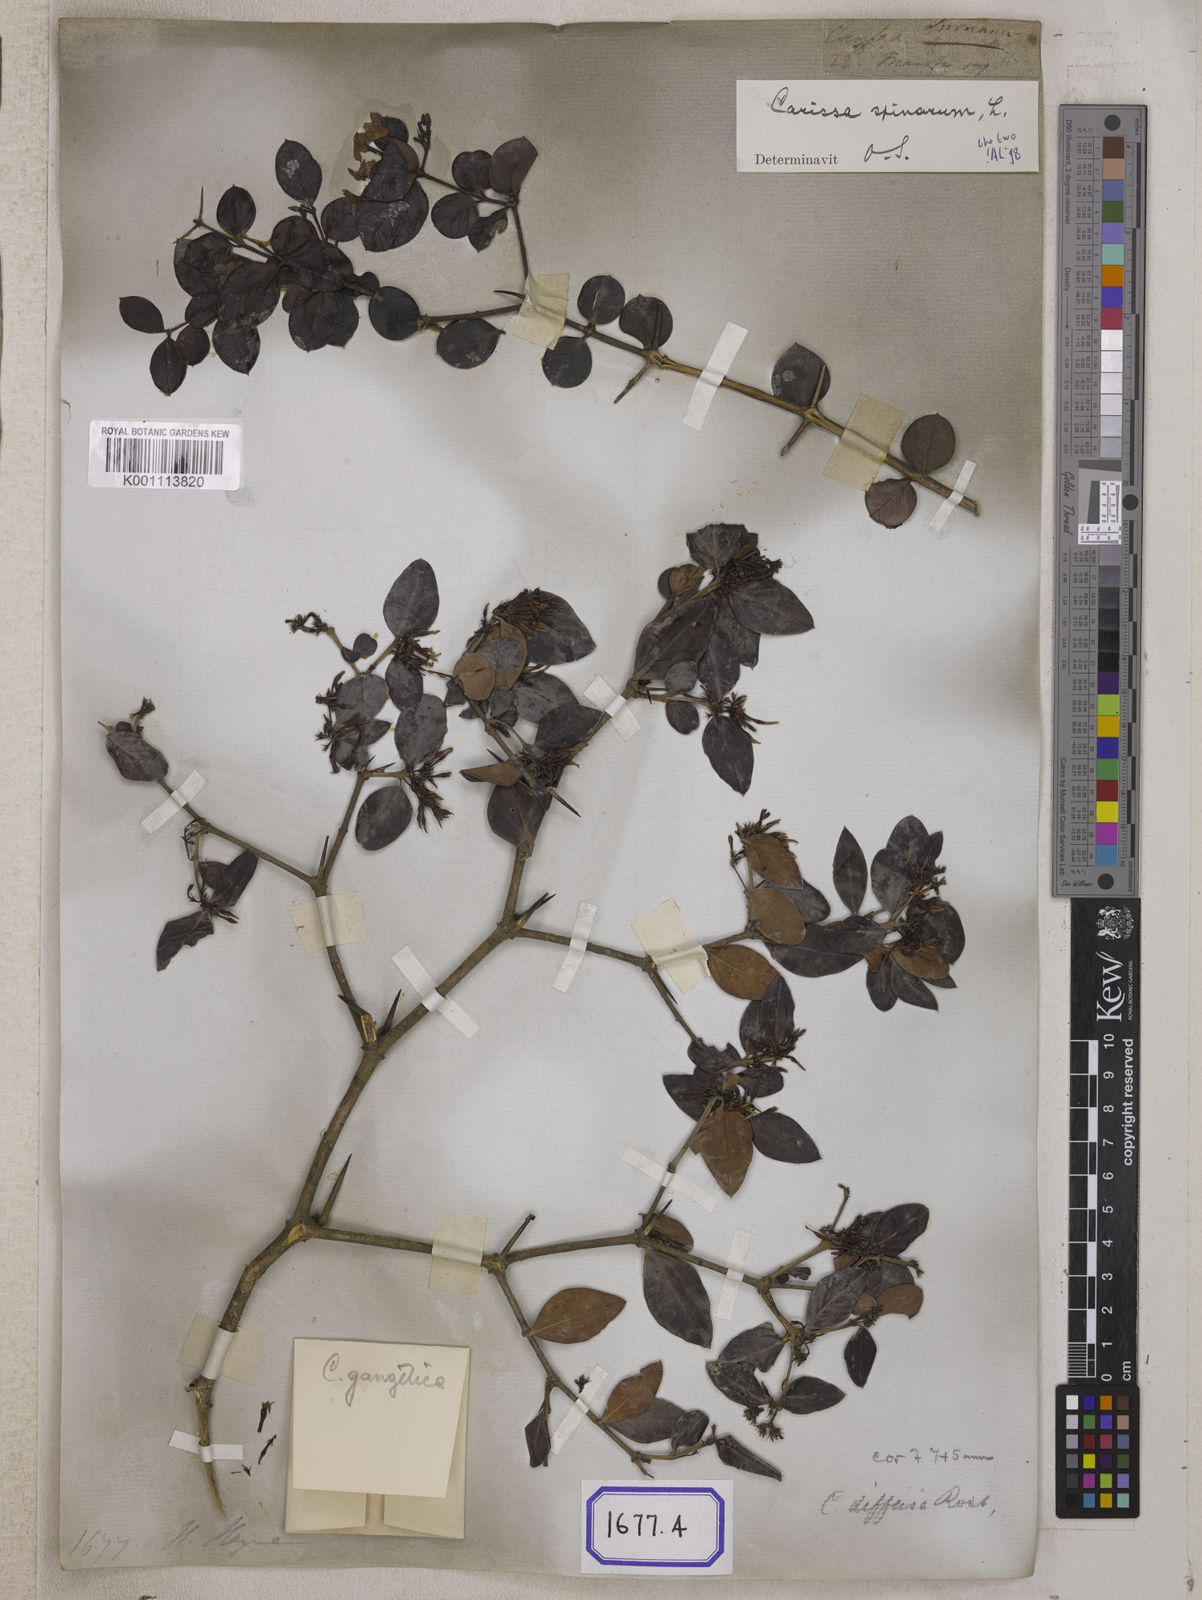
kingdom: Plantae
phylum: Tracheophyta
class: Magnoliopsida
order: Gentianales
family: Apocynaceae
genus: Carissa
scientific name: Carissa carandas
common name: Karanda
